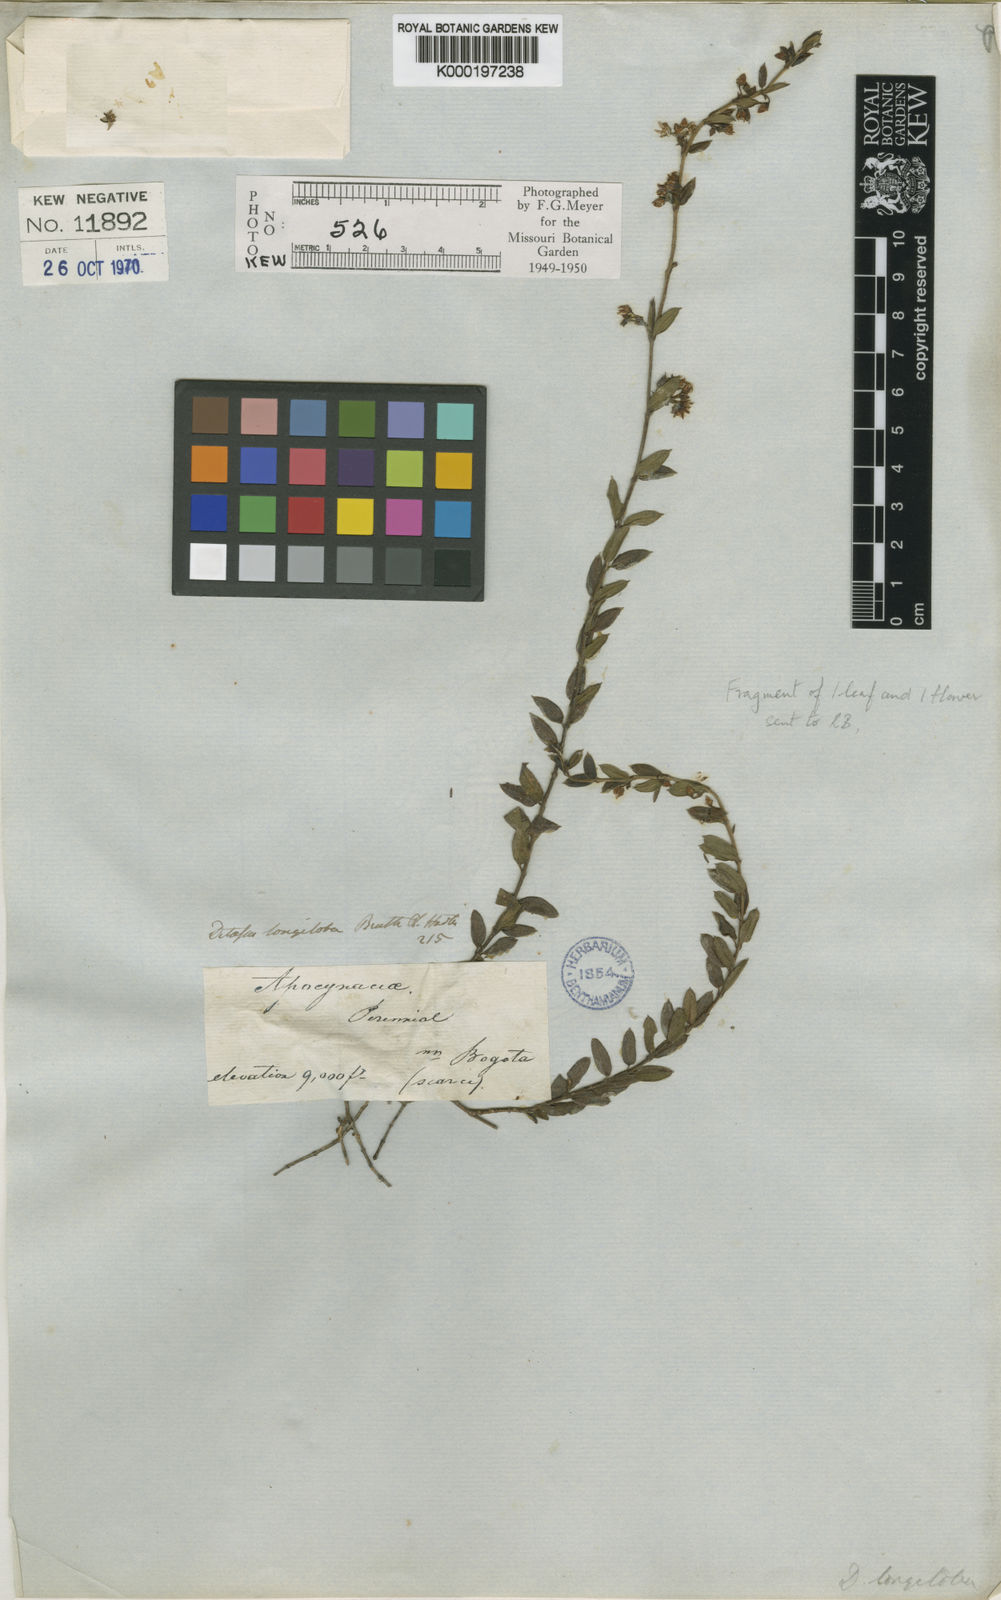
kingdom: Plantae
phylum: Tracheophyta
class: Magnoliopsida
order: Gentianales
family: Apocynaceae
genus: Ditassa
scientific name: Ditassa longiloba
